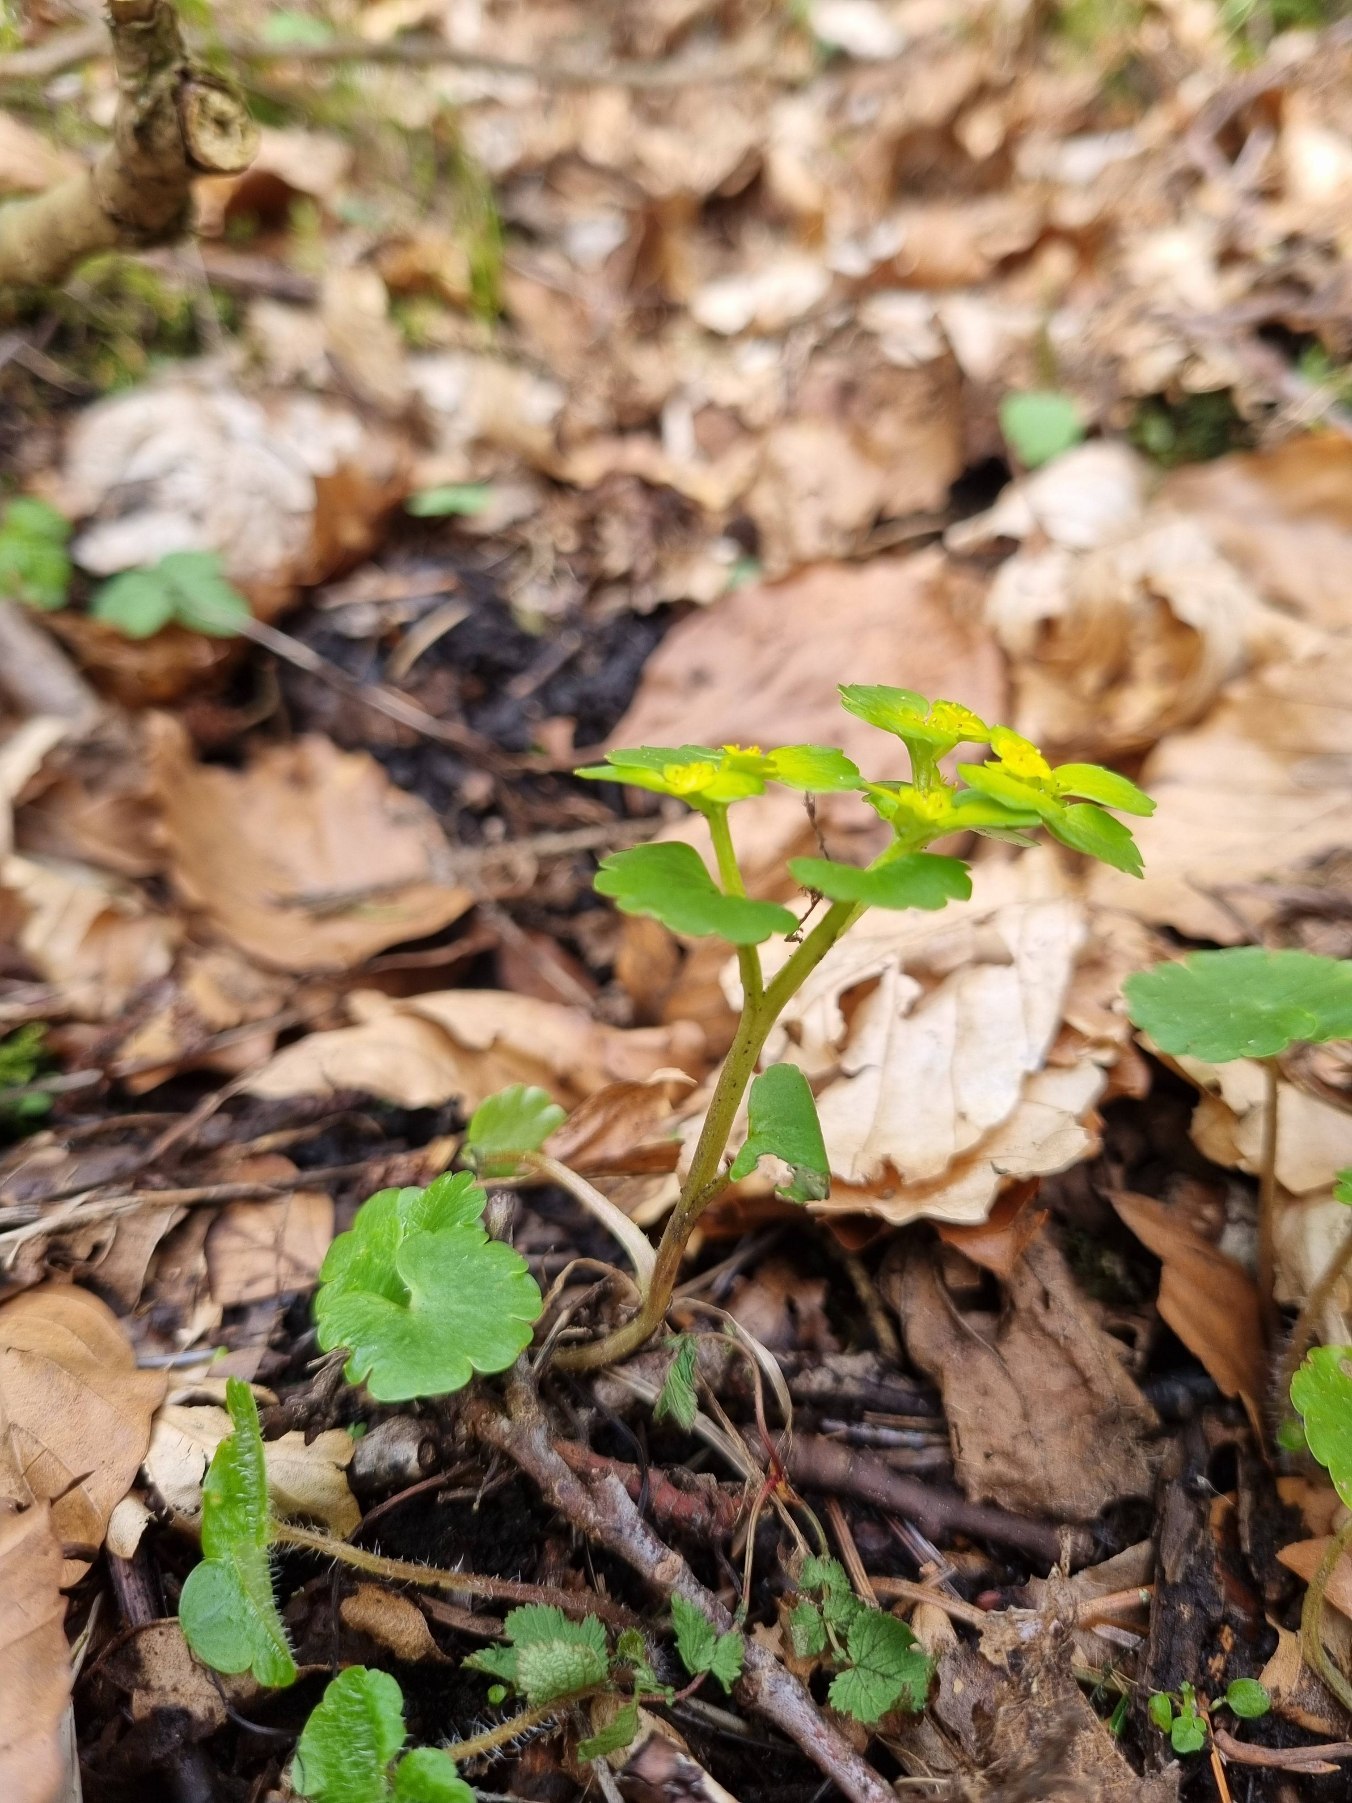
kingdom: Plantae
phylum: Tracheophyta
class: Magnoliopsida
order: Saxifragales
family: Saxifragaceae
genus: Chrysosplenium
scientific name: Chrysosplenium alternifolium
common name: Almindelig milturt
